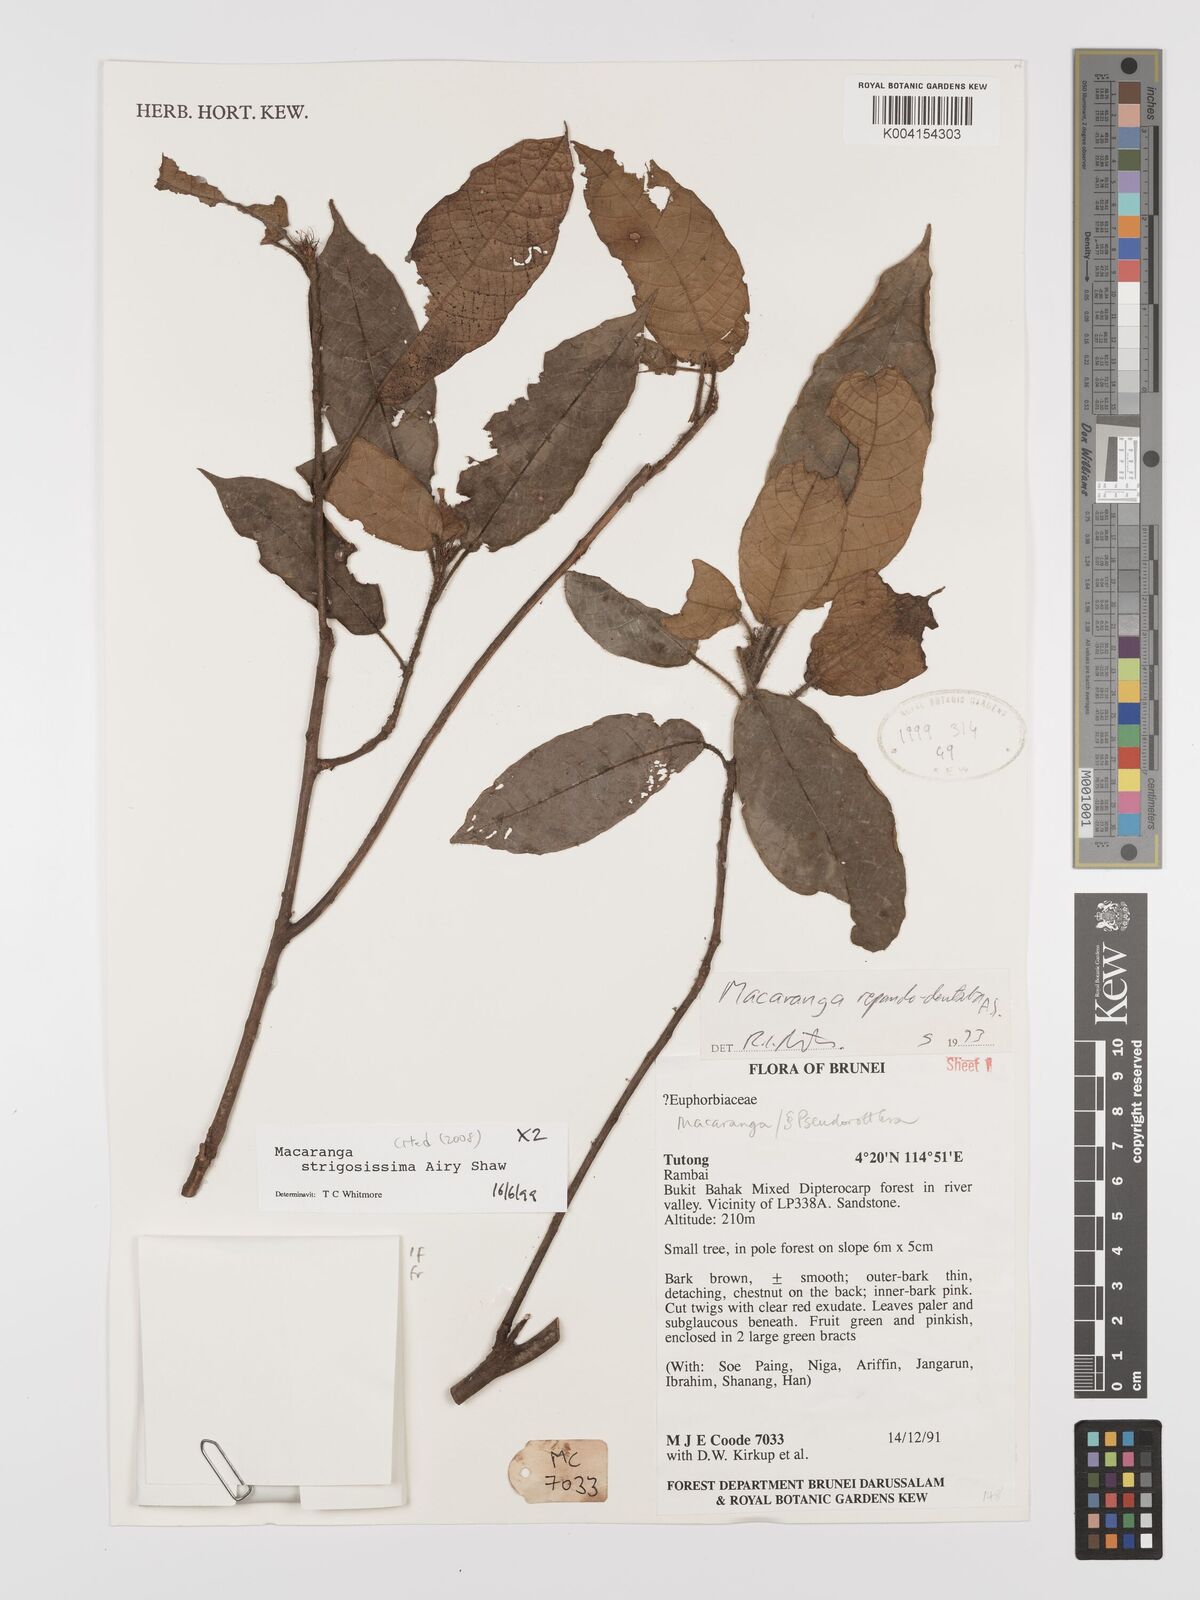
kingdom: Plantae
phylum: Tracheophyta
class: Magnoliopsida
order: Malpighiales
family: Euphorbiaceae
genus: Macaranga
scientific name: Macaranga strigosissima
